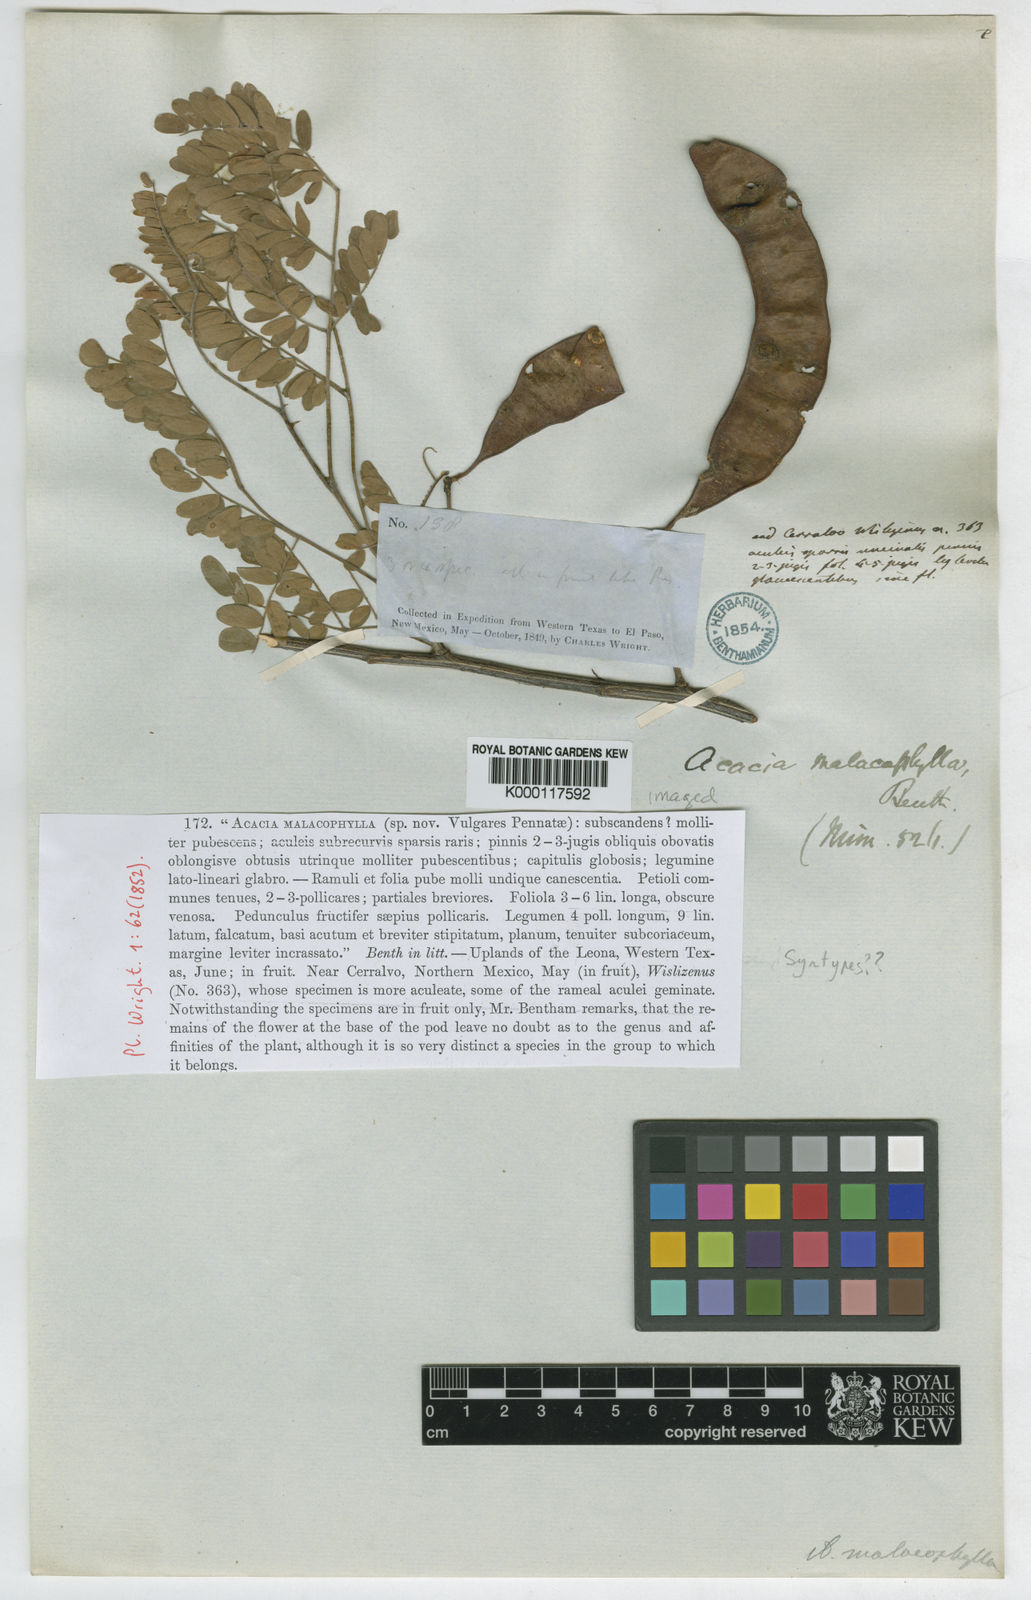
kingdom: Plantae
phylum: Tracheophyta
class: Magnoliopsida
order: Fabales
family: Fabaceae
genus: Senegalia
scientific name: Senegalia roemeriana
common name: Roemer's acacia
